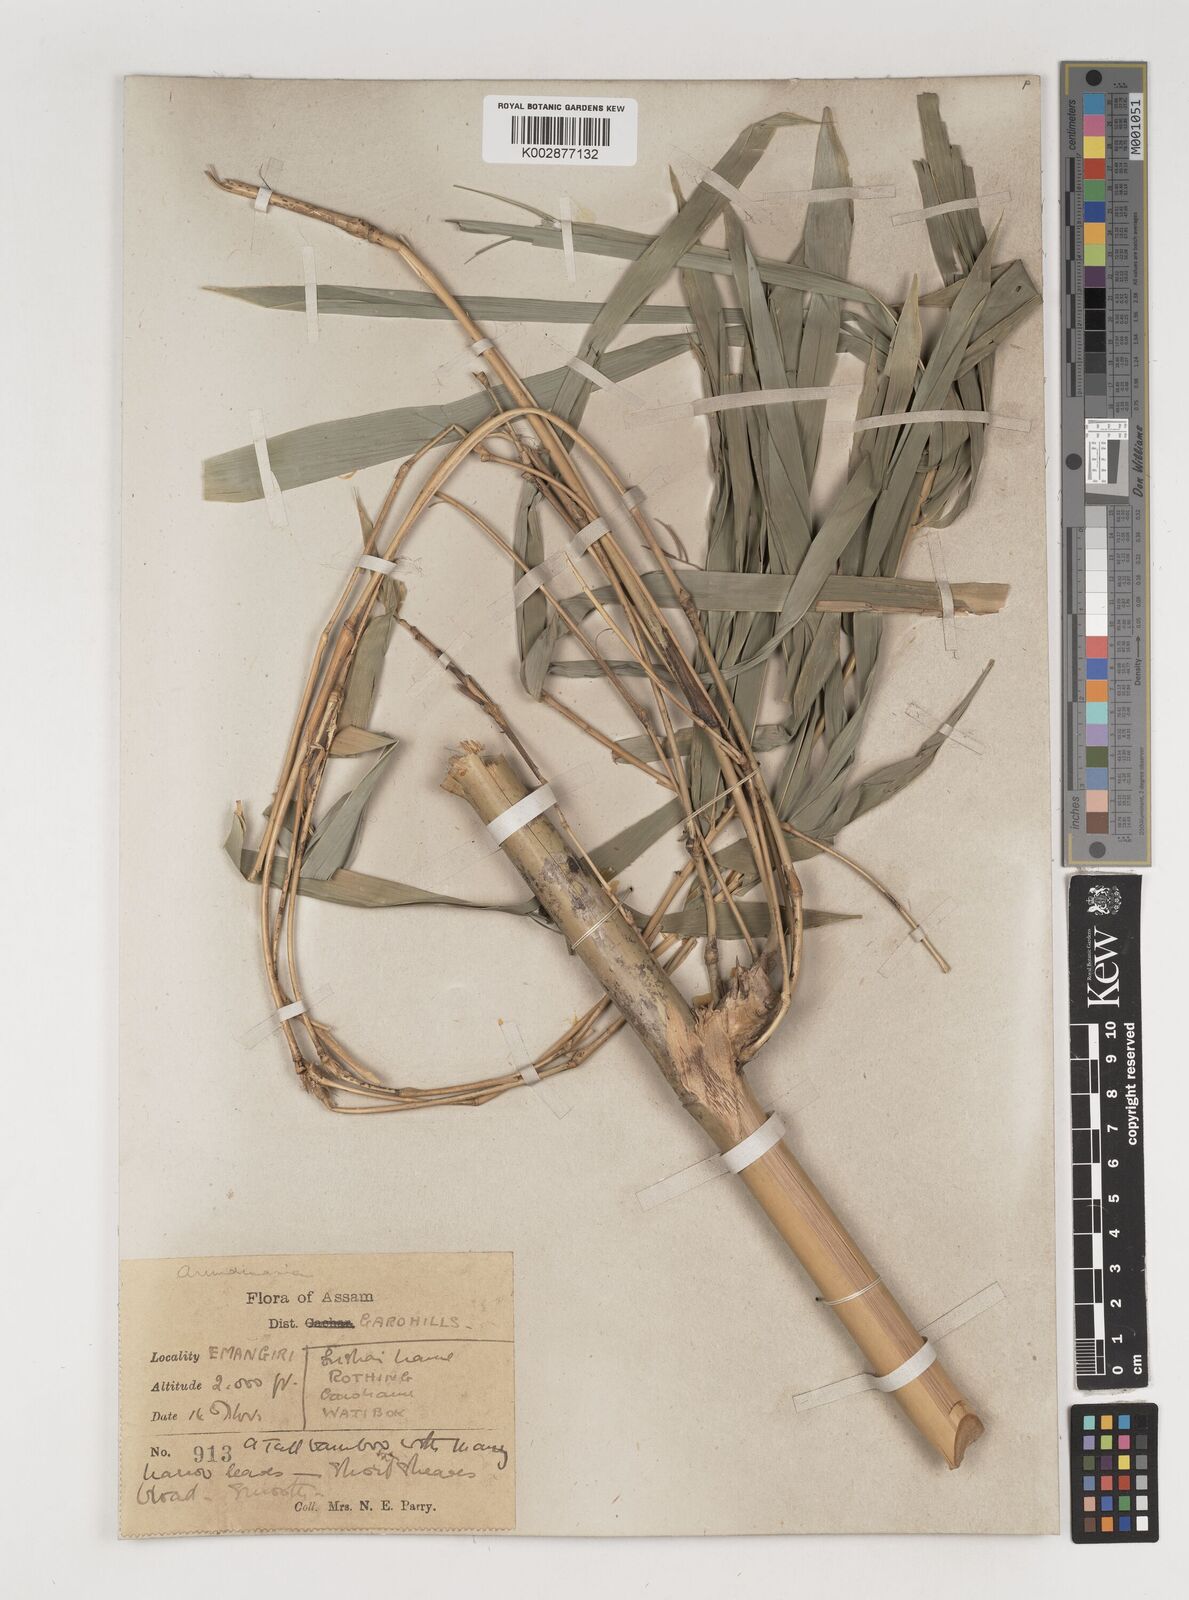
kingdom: Plantae
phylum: Tracheophyta
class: Liliopsida
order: Poales
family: Poaceae
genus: Bambusa
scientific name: Bambusa
